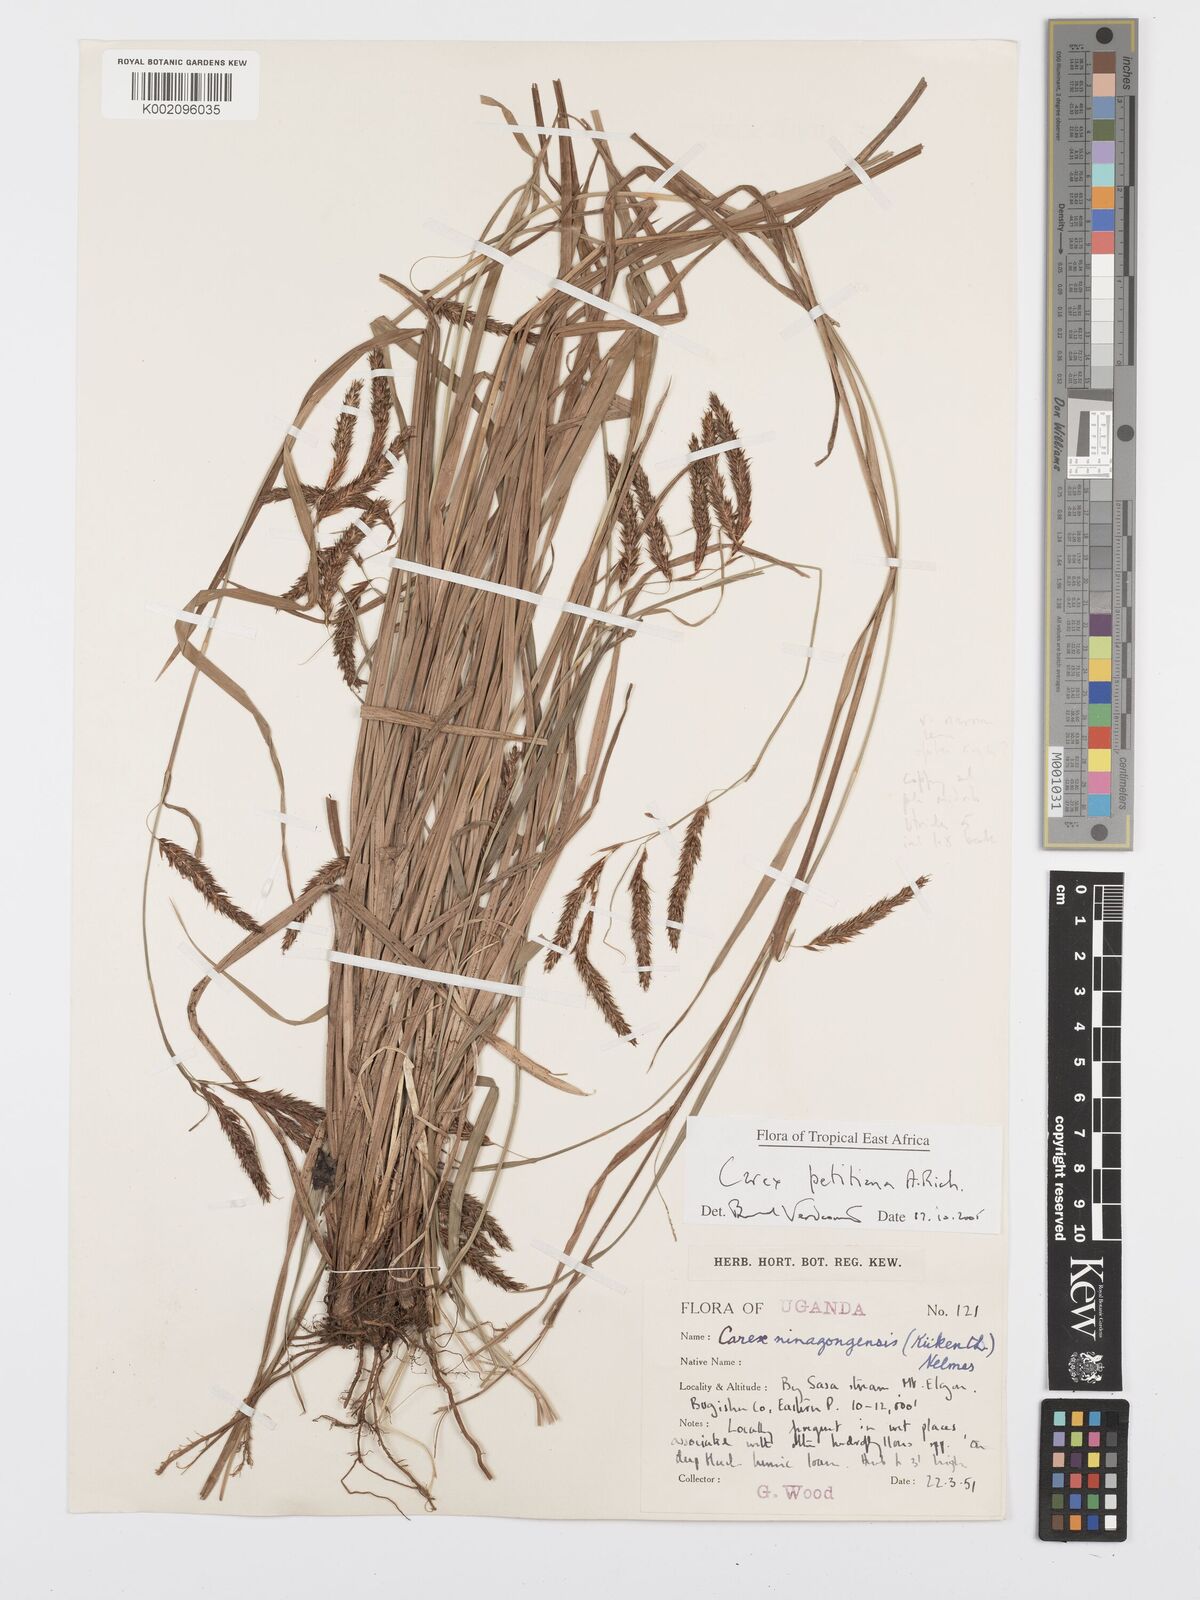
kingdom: Plantae
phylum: Tracheophyta
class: Liliopsida
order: Poales
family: Cyperaceae
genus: Carex
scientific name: Carex mannii
